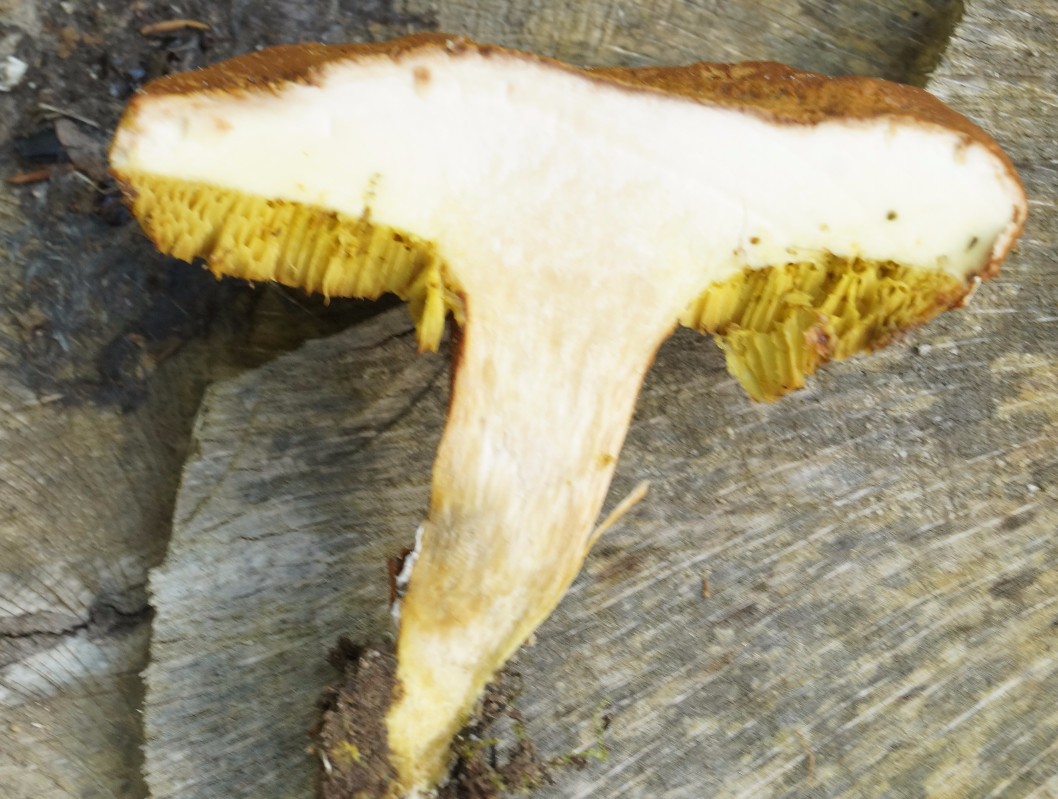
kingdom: Fungi
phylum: Basidiomycota
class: Agaricomycetes
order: Boletales
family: Boletaceae
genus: Xerocomus
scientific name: Xerocomus ferrugineus
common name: vaskeskinds-rørhat
